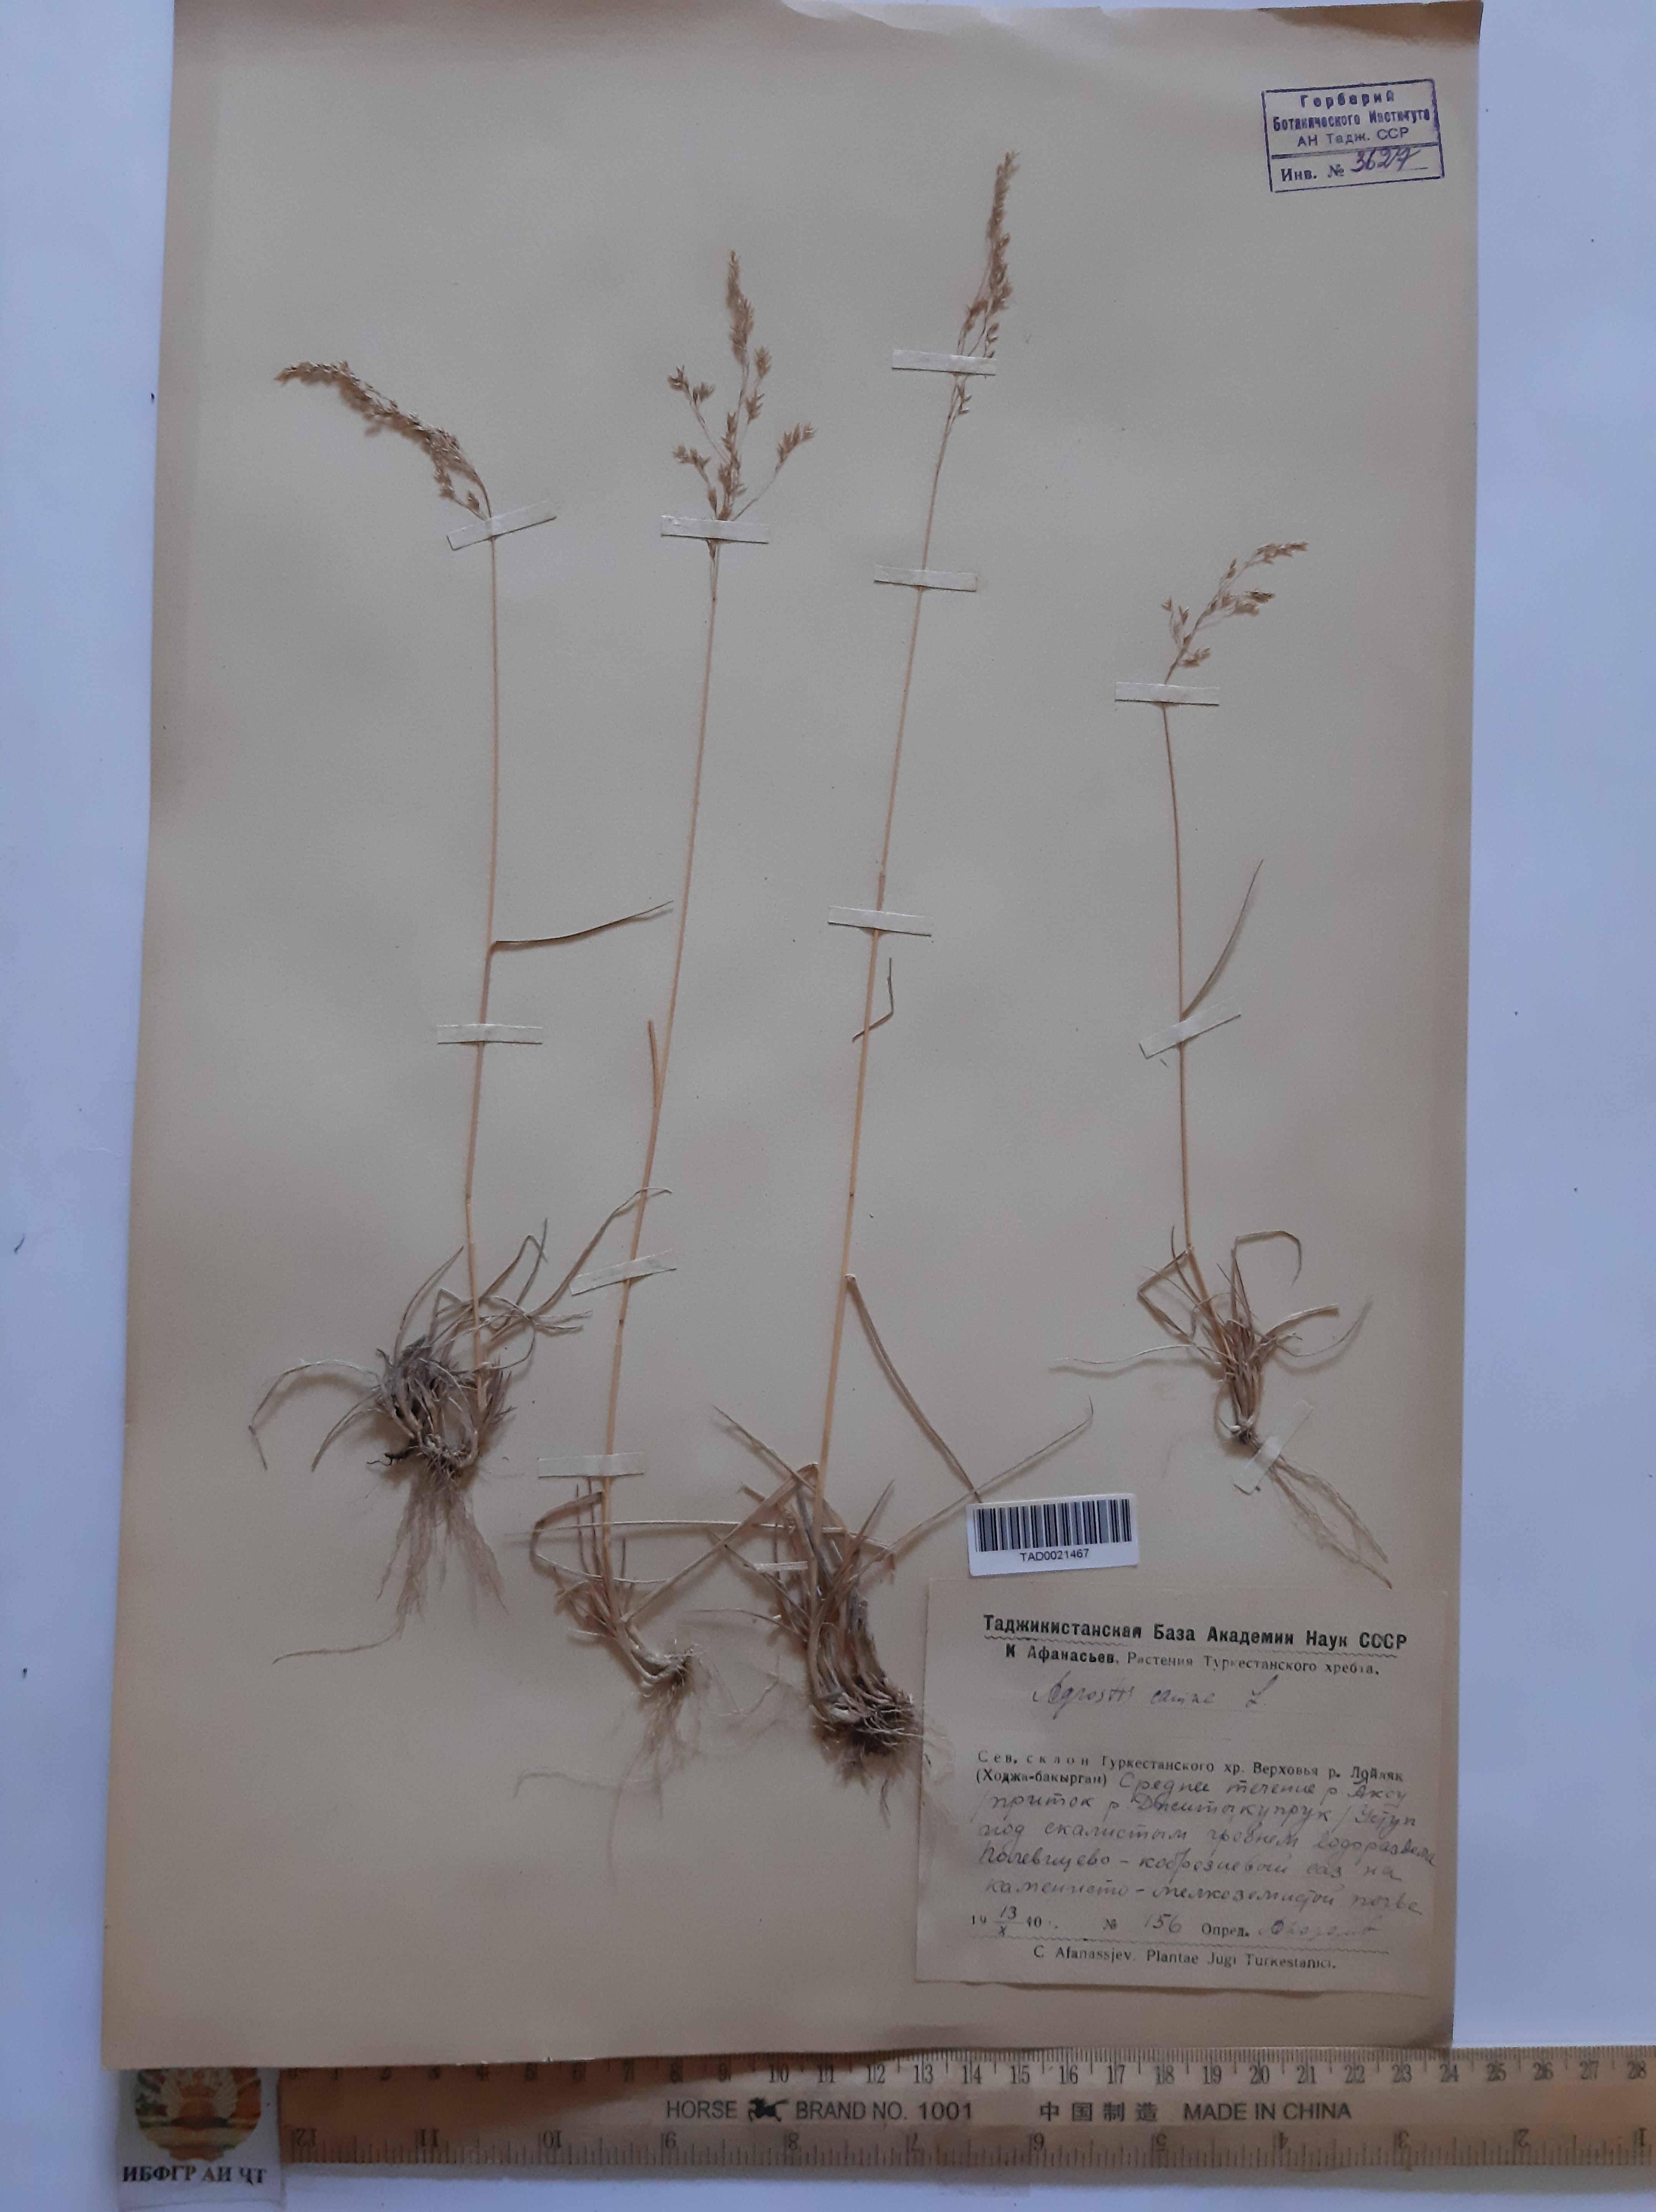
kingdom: Plantae
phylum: Tracheophyta
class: Liliopsida
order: Poales
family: Poaceae
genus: Agrostis
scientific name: Agrostis canina
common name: Velvet bent
